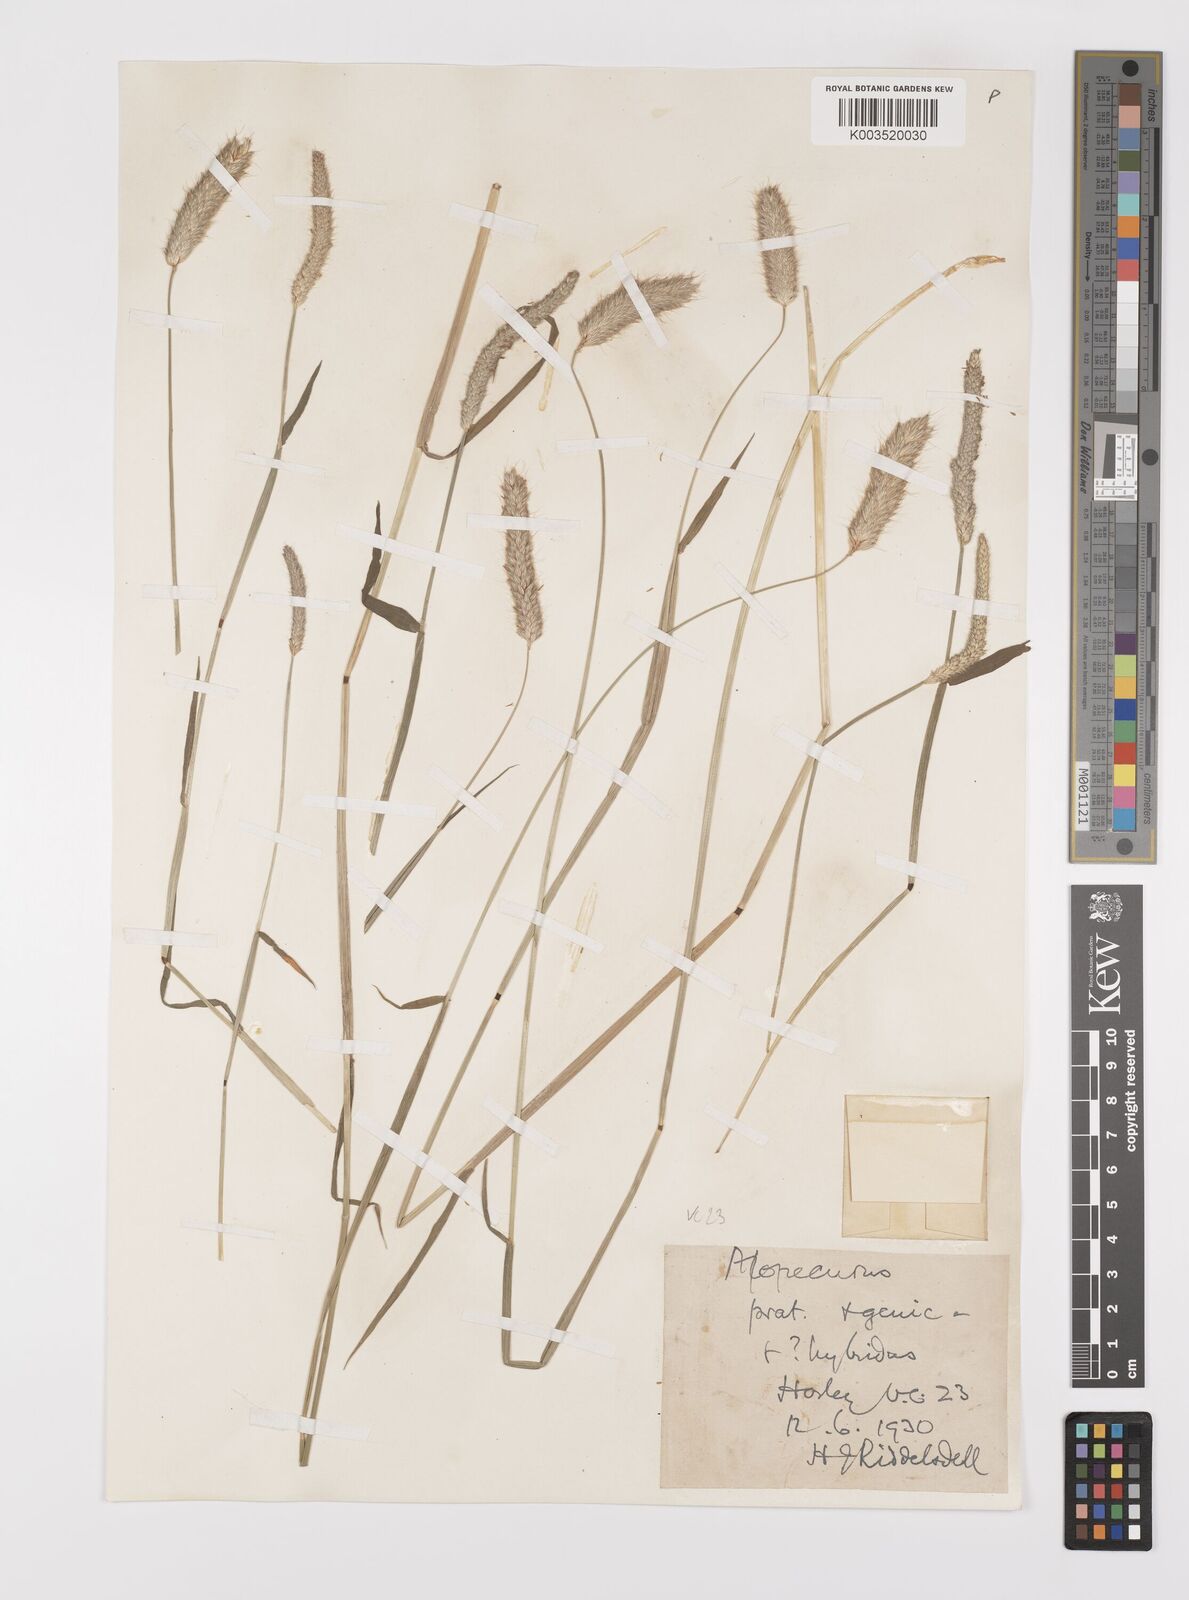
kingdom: Plantae
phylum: Tracheophyta
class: Liliopsida
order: Poales
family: Poaceae
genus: Alopecurus
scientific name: Alopecurus brachystylus
